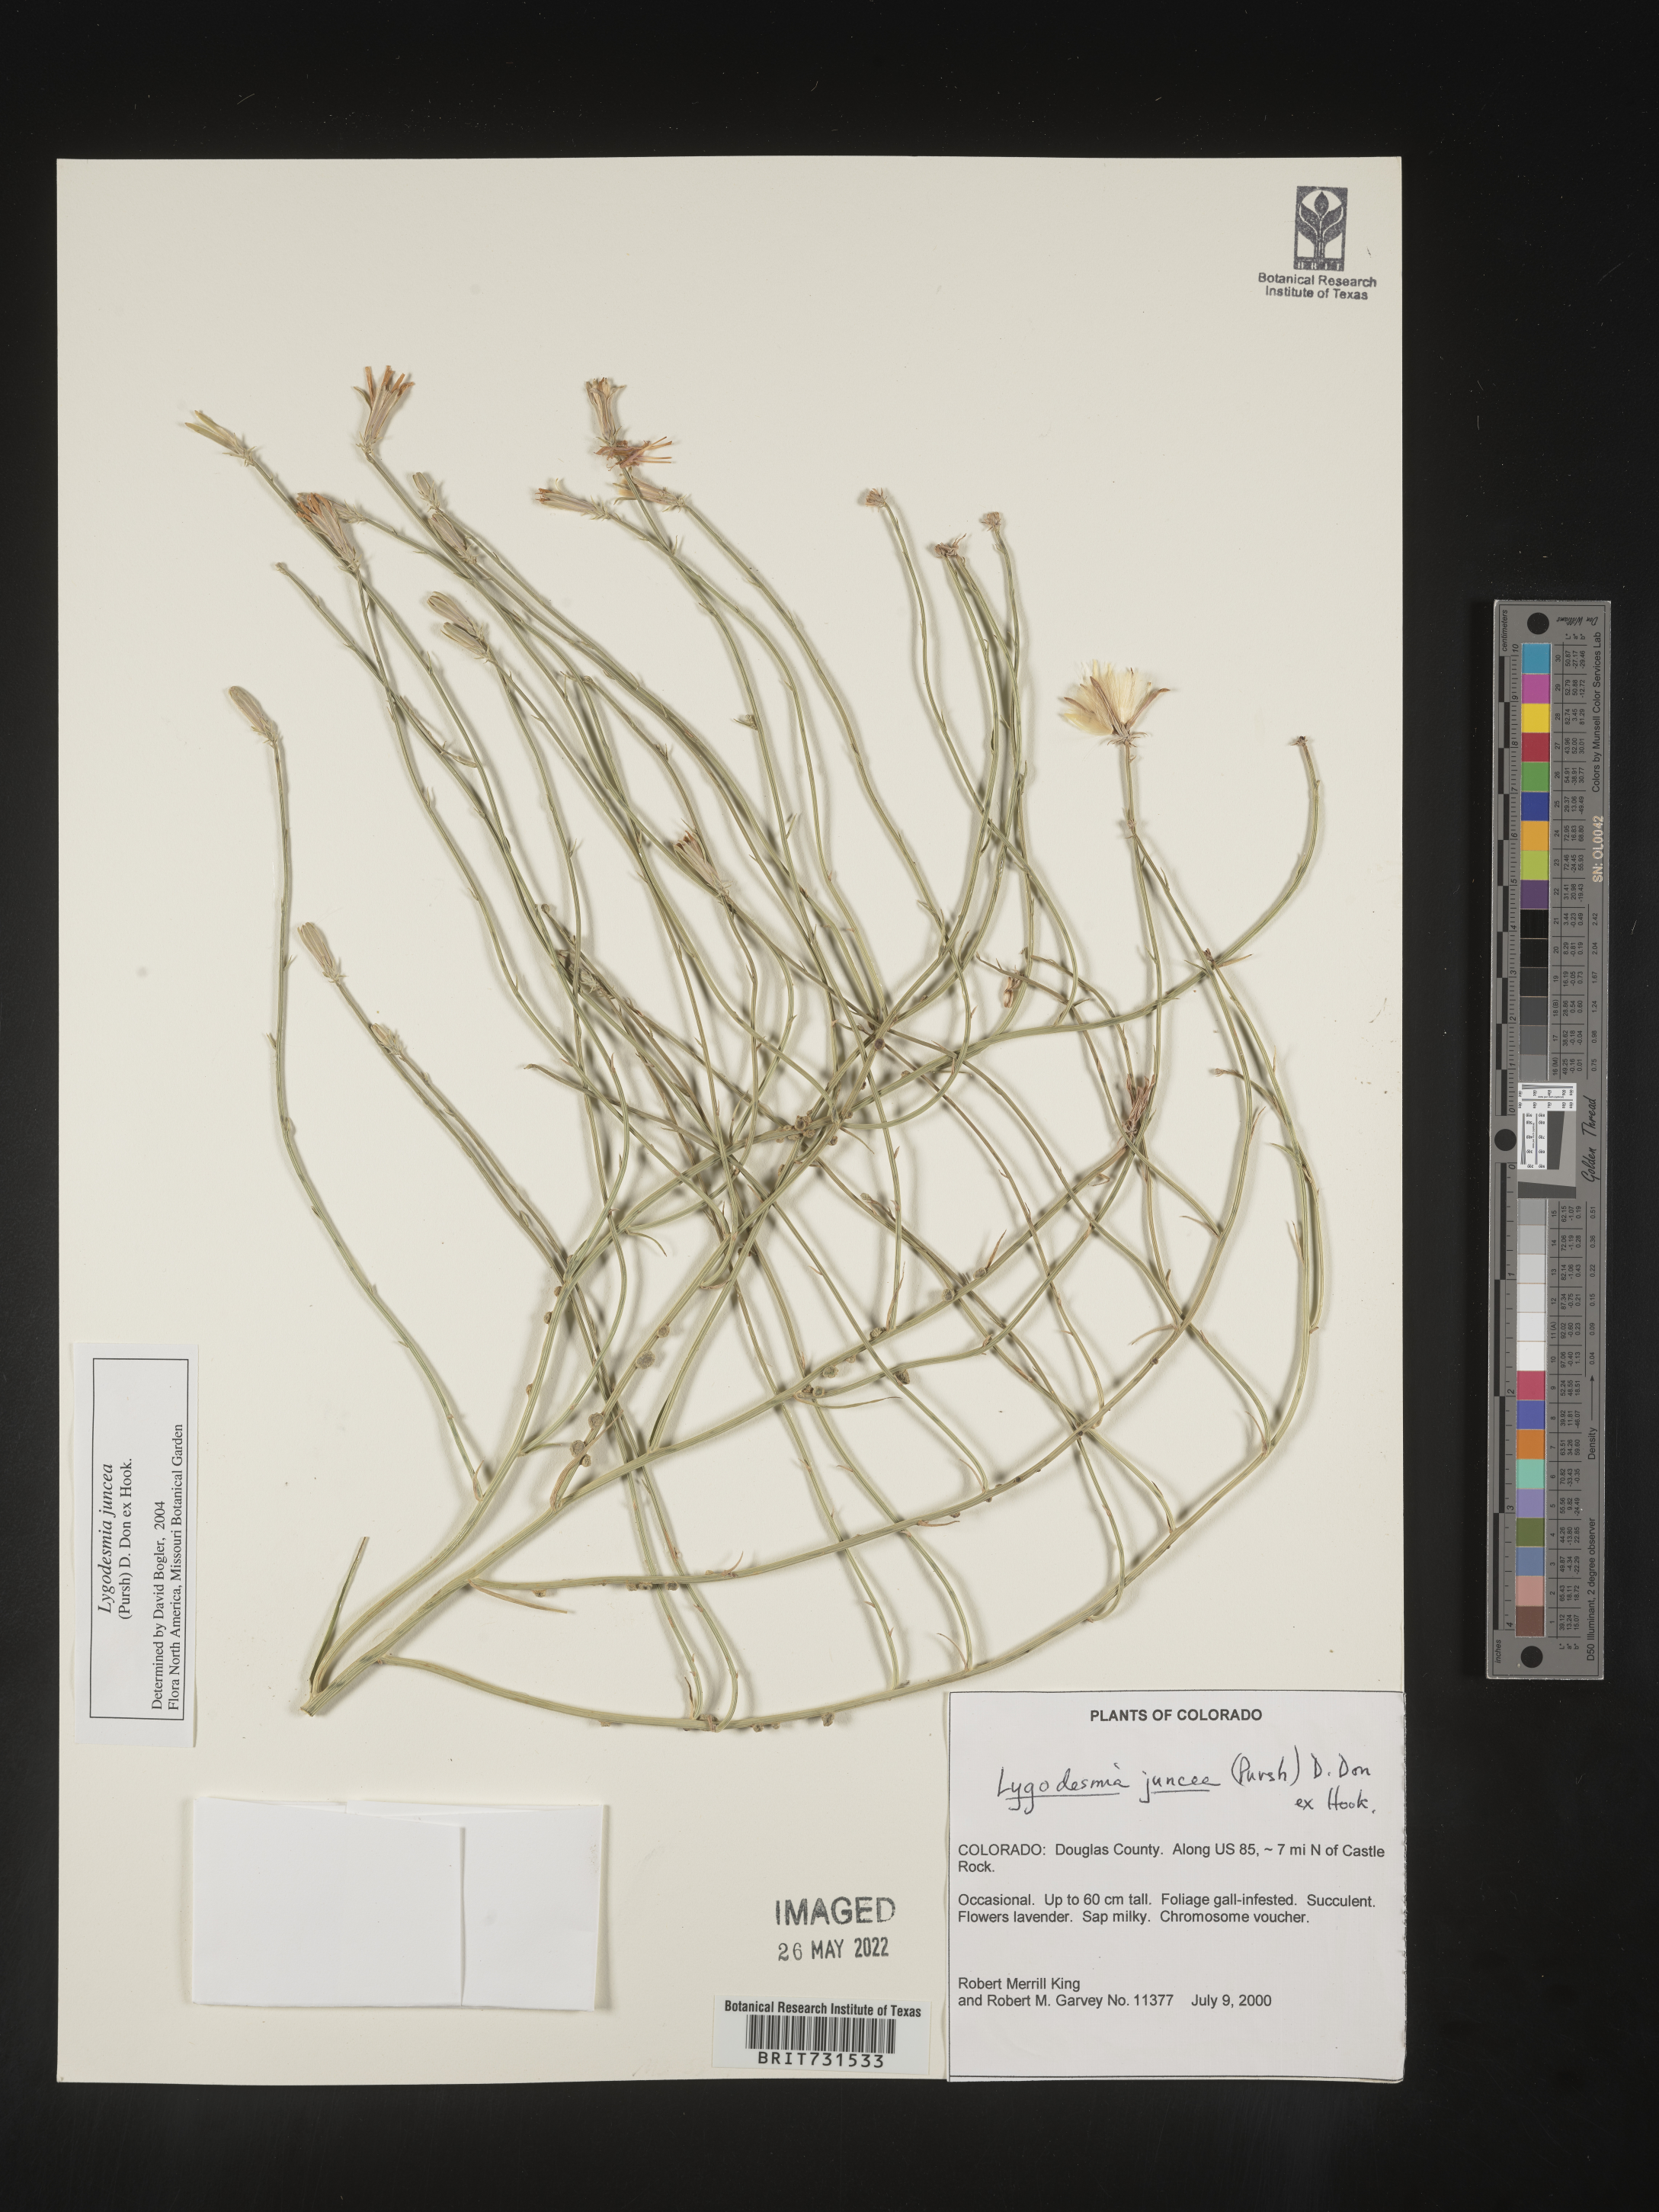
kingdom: Plantae
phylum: Tracheophyta
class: Magnoliopsida
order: Asterales
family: Asteraceae
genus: Lygodesmia
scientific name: Lygodesmia juncea
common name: Common skeletonweed
